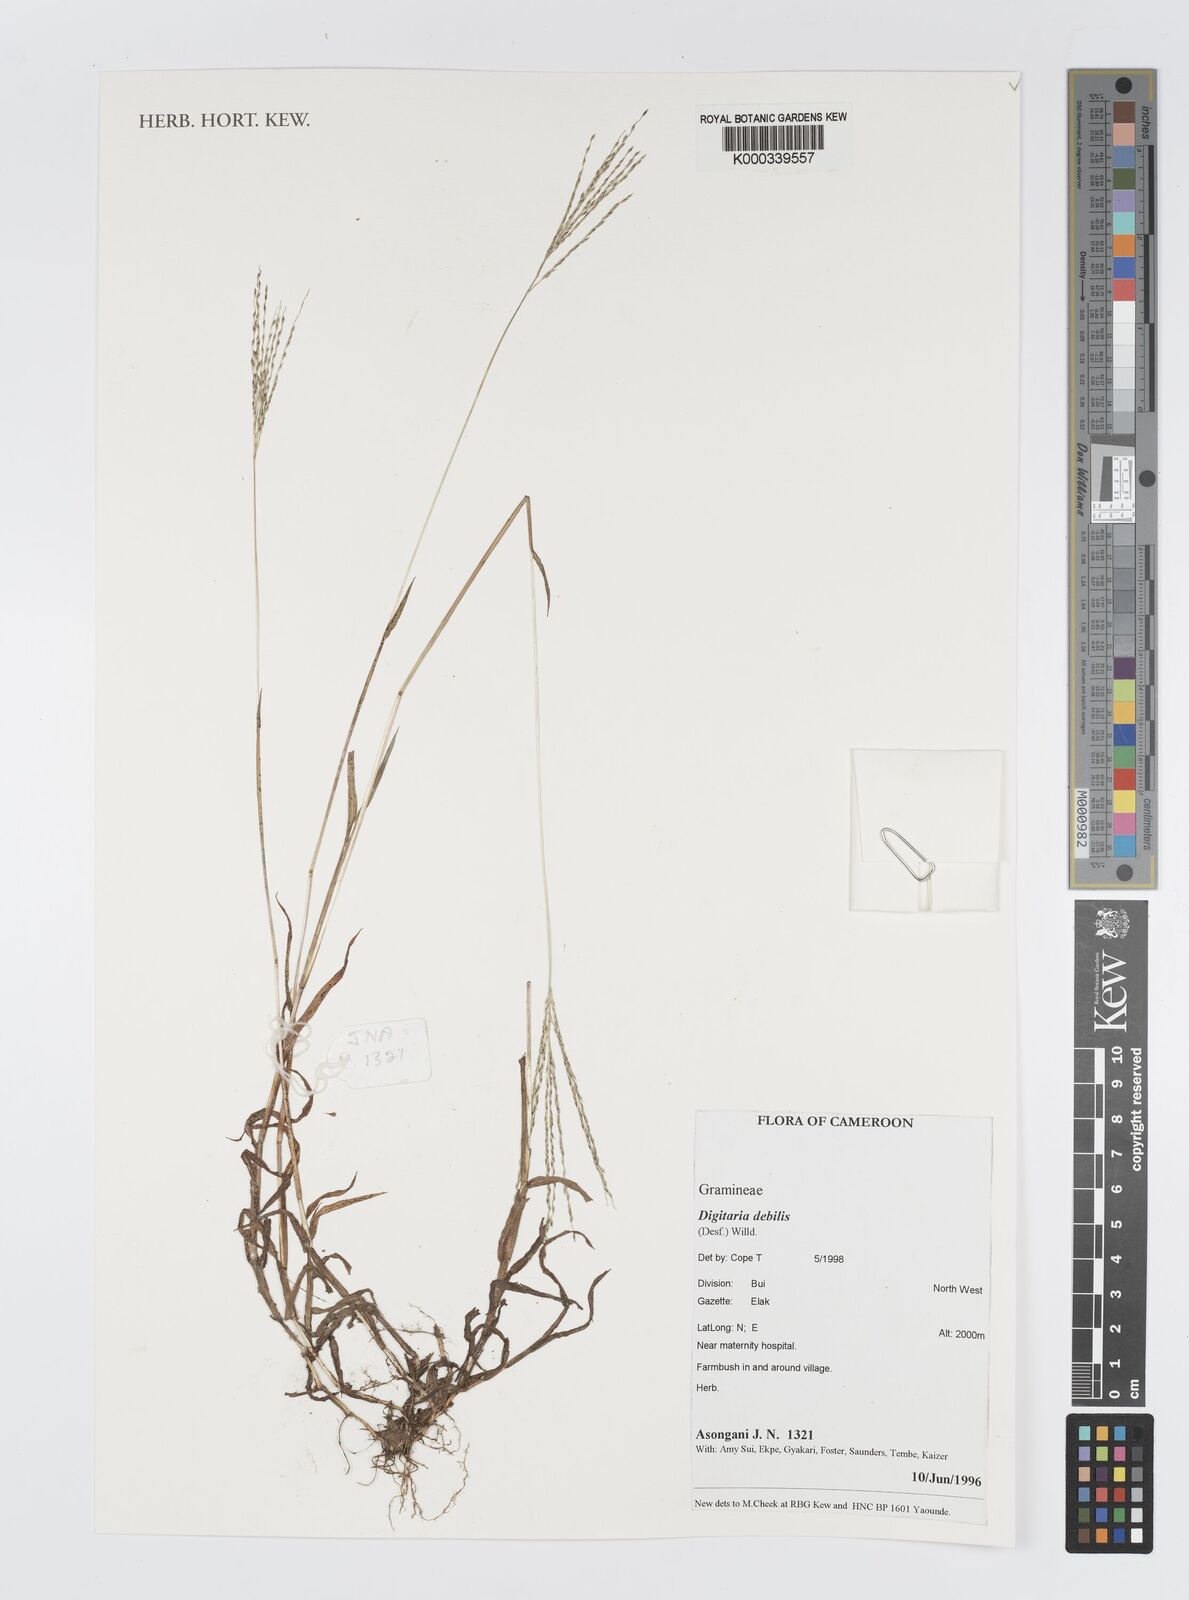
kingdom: Plantae
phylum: Tracheophyta
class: Liliopsida
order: Poales
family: Poaceae
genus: Digitaria
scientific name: Digitaria debilis
